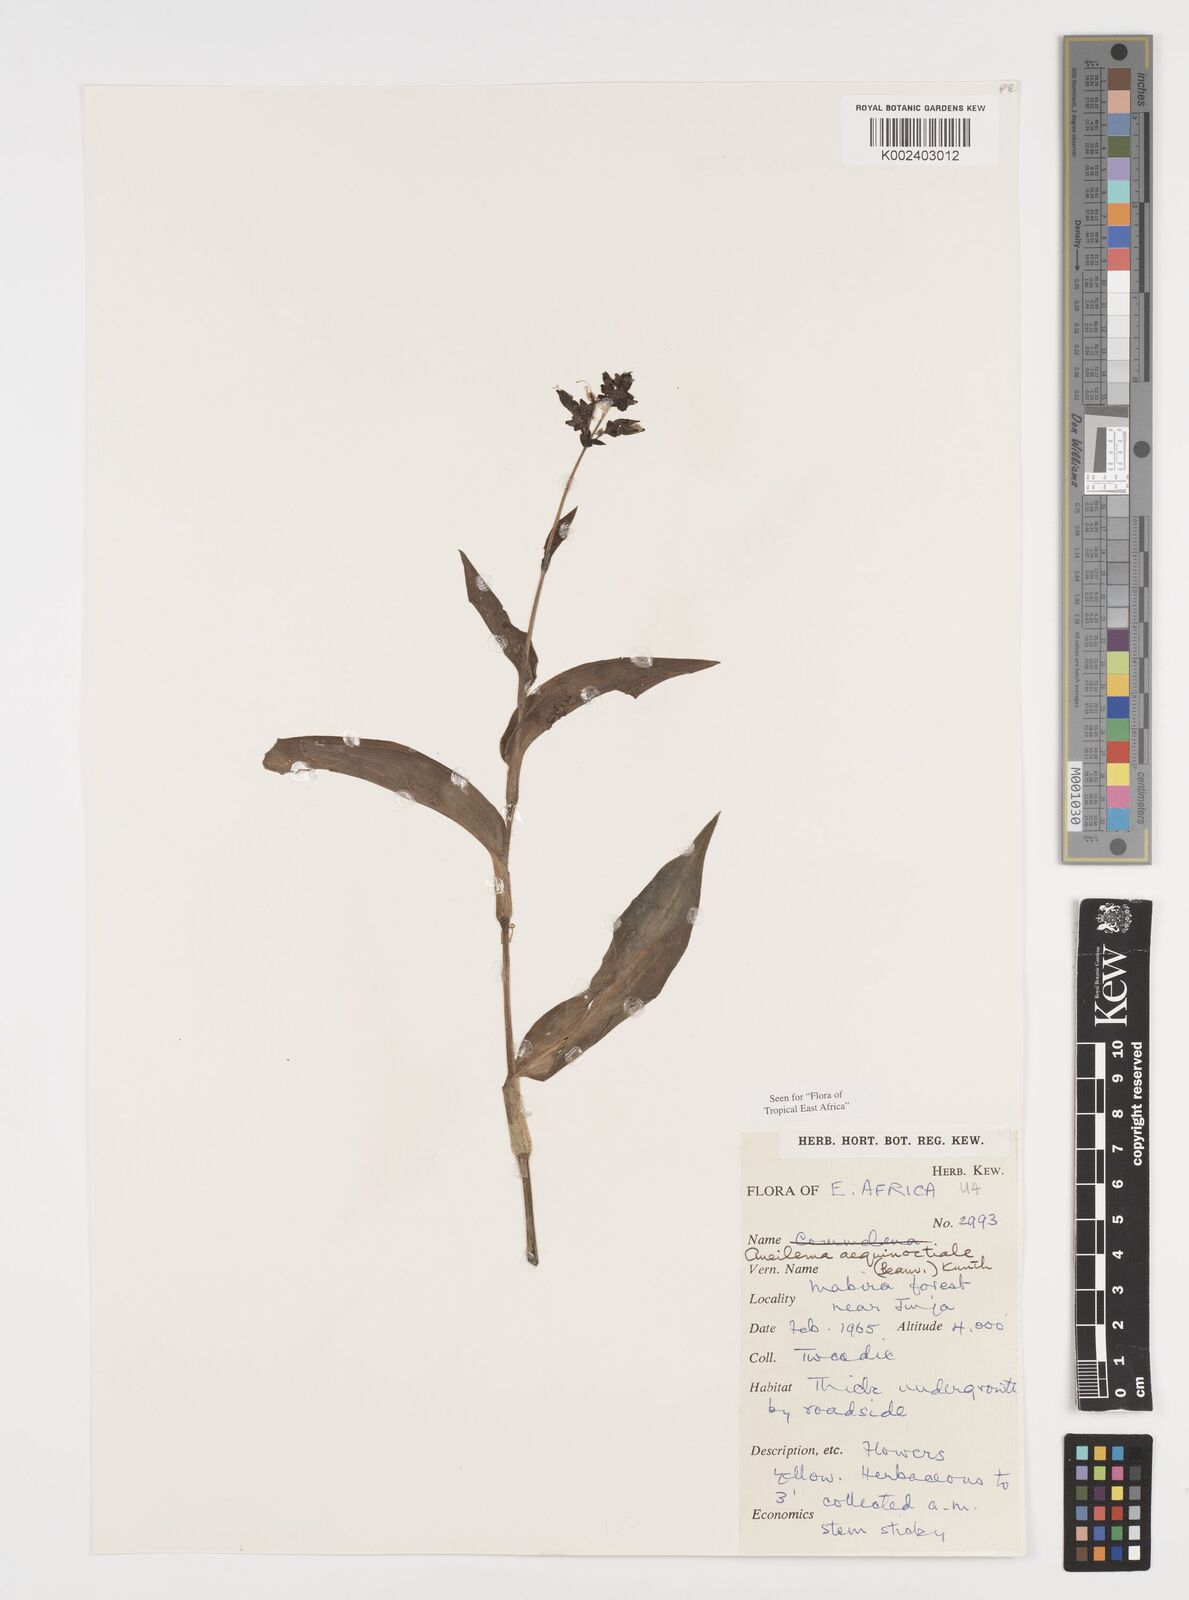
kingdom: Plantae
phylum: Tracheophyta
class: Liliopsida
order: Commelinales
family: Commelinaceae
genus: Aneilema
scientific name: Aneilema aequinoctiale
